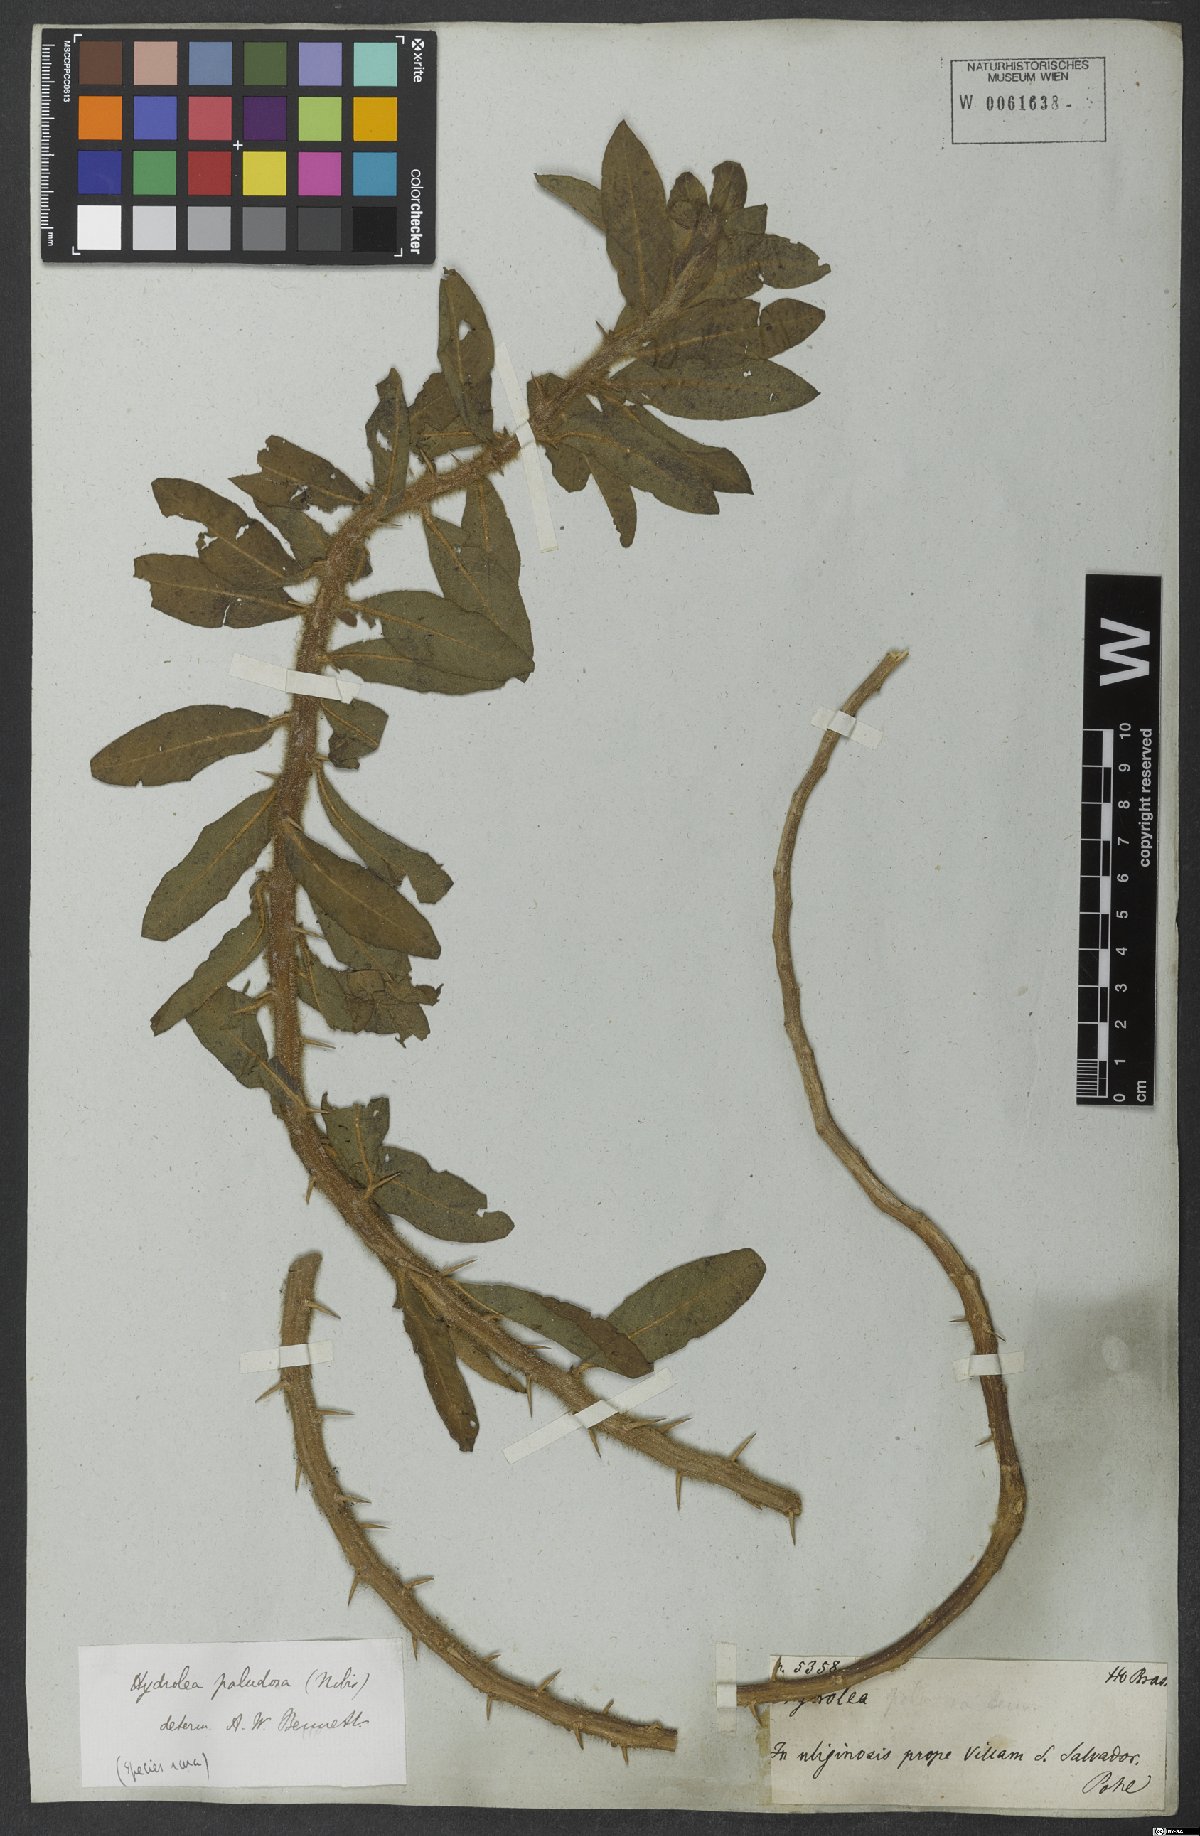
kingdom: Plantae
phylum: Tracheophyta
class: Magnoliopsida
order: Solanales
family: Hydroleaceae
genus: Hydrolea
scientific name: Hydrolea spinosa
